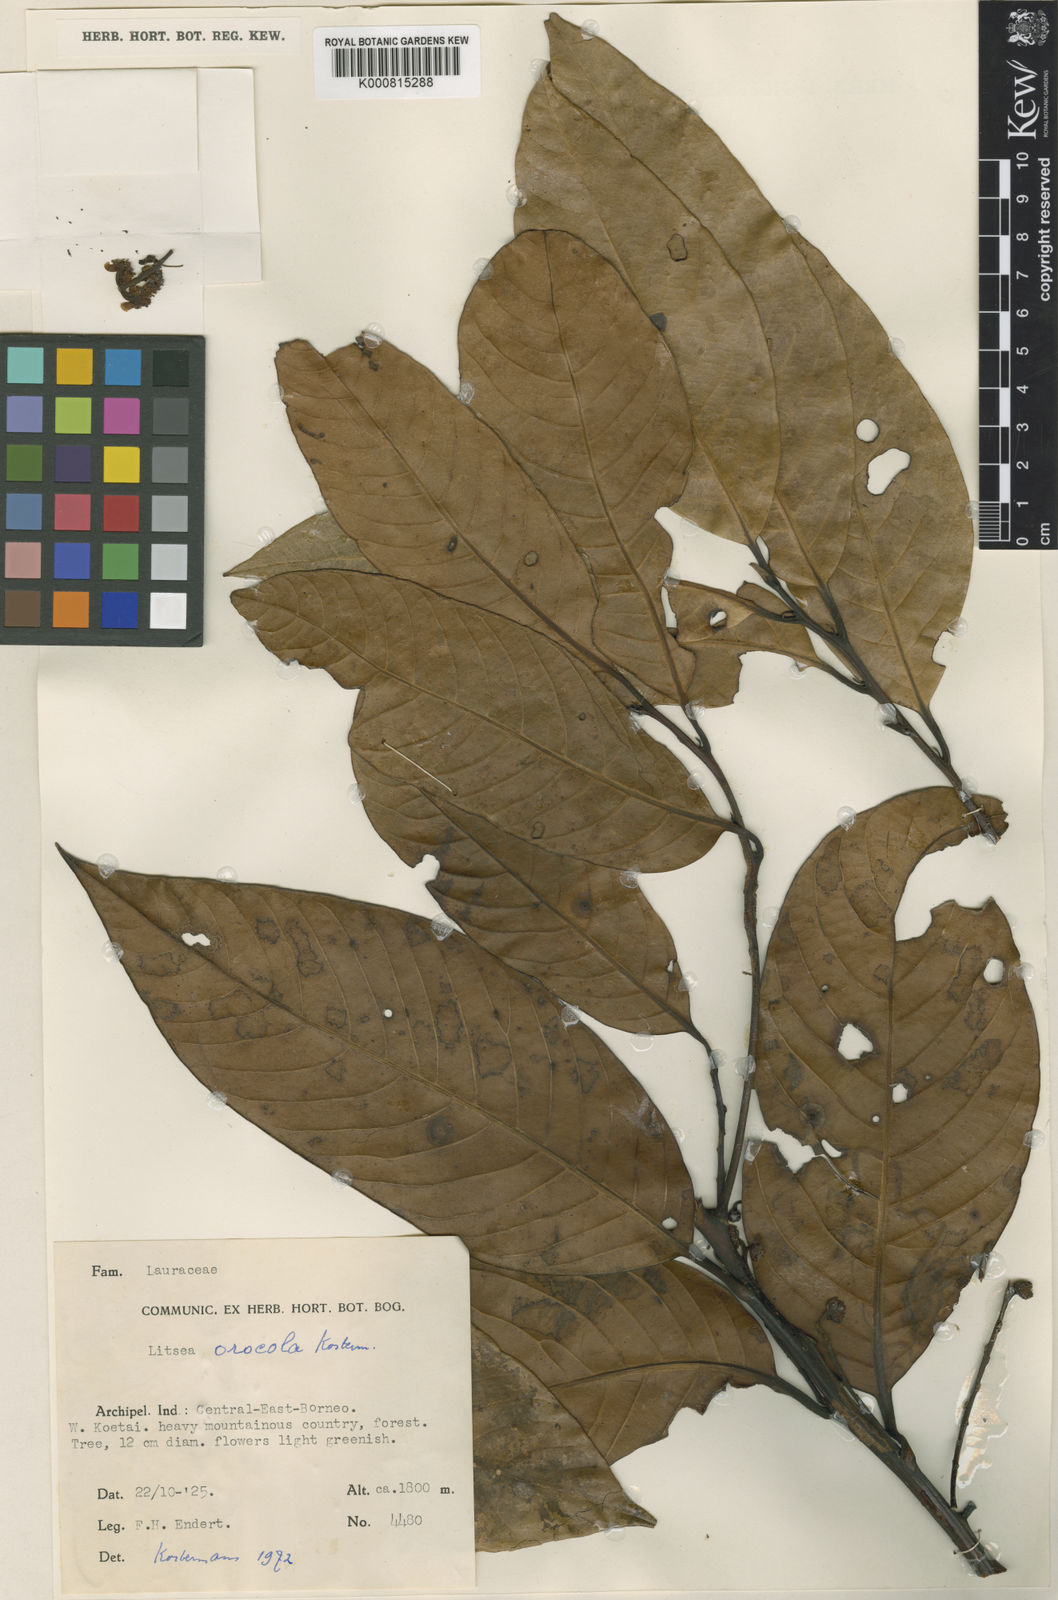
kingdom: Plantae
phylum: Tracheophyta
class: Magnoliopsida
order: Laurales
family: Lauraceae
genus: Litsea
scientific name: Litsea orocola
